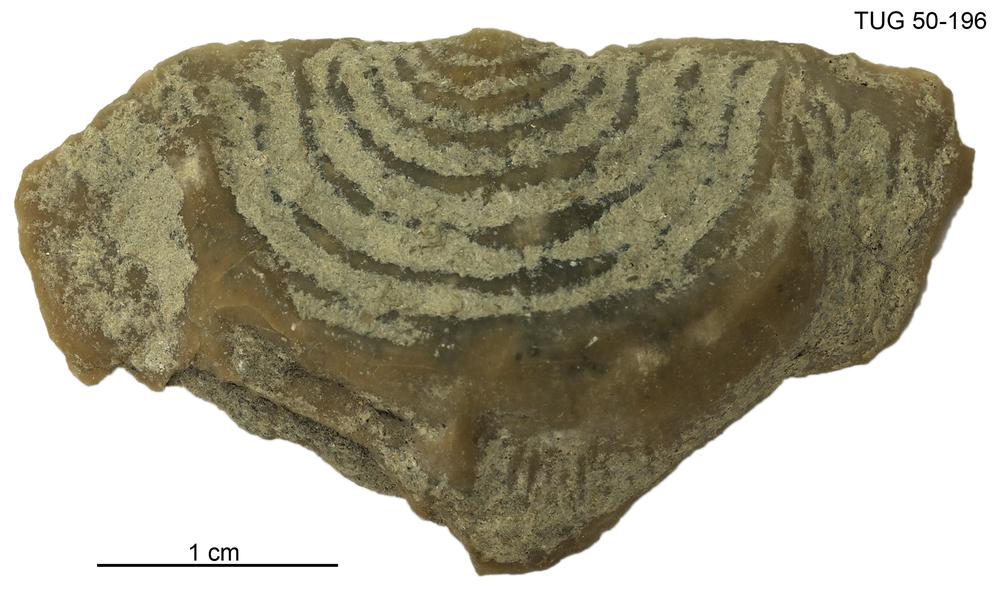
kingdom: Animalia
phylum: Brachiopoda
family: Strophomenidae
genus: Leptaena
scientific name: Leptaena Similoleptaena paucirugata
